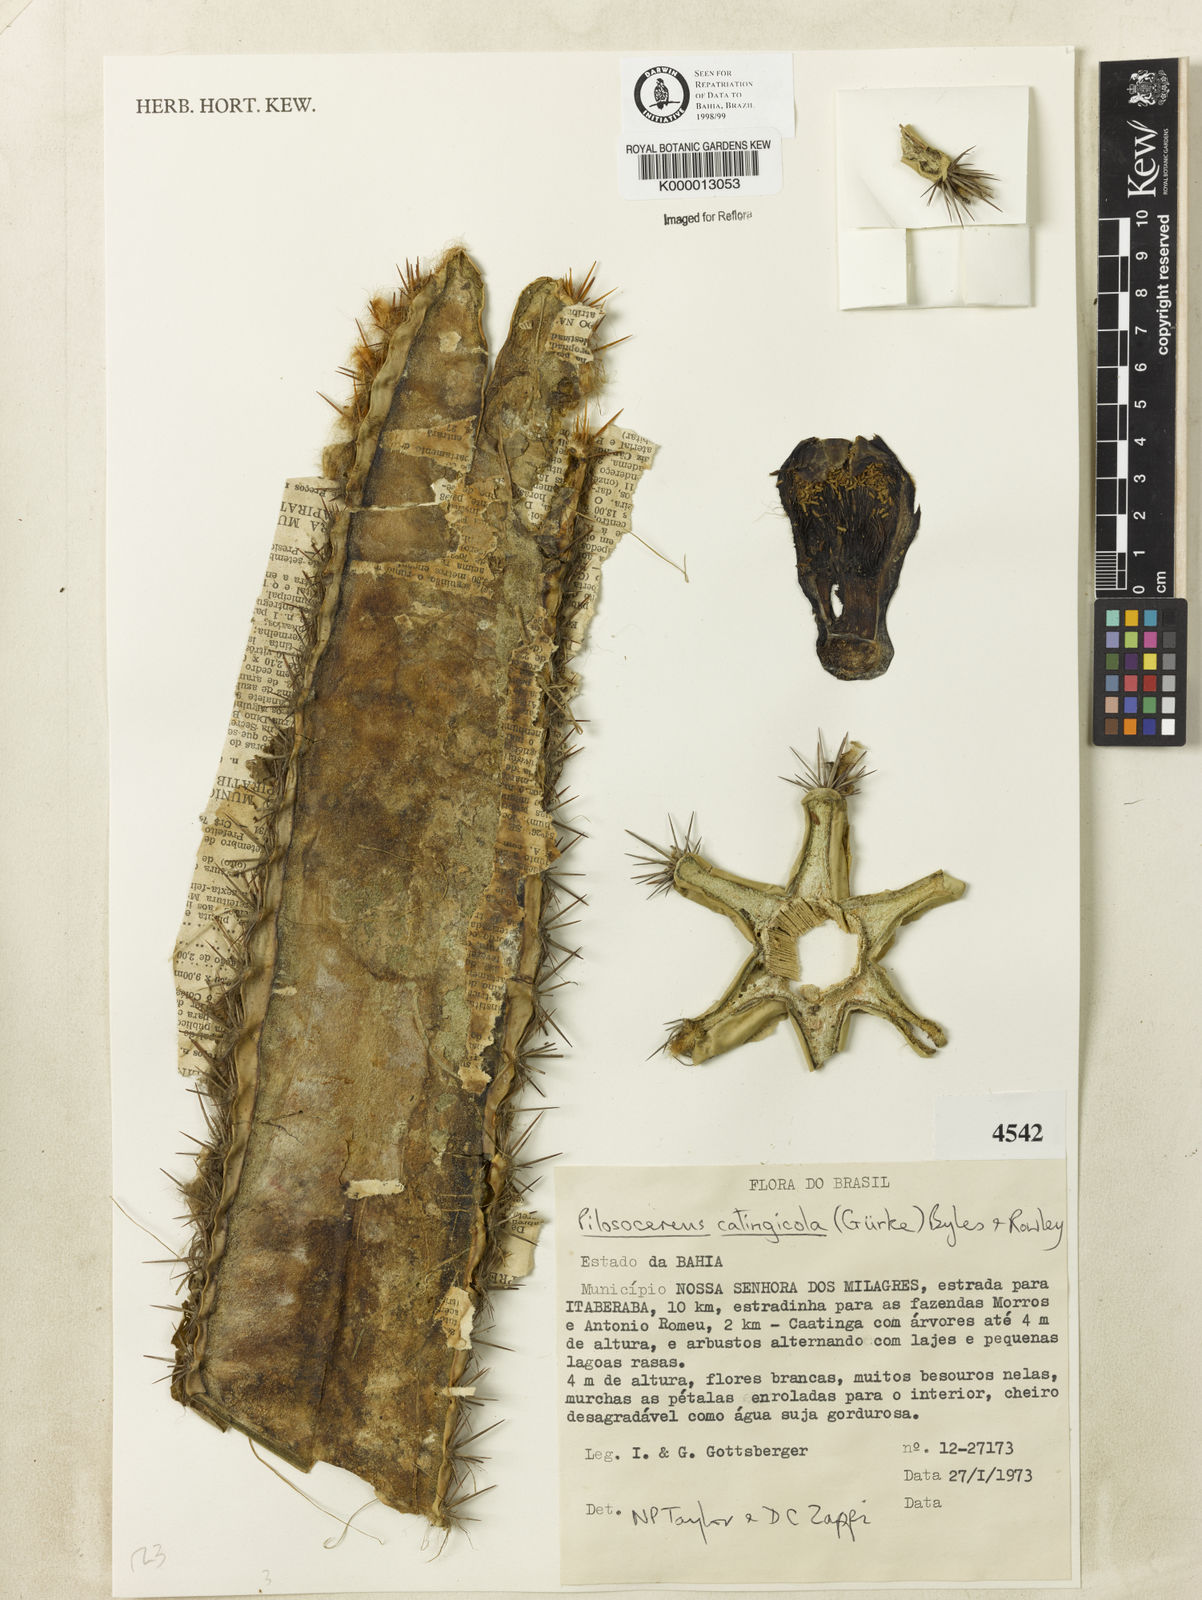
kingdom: Plantae
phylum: Tracheophyta
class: Magnoliopsida
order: Caryophyllales
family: Cactaceae
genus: Pilosocereus
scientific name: Pilosocereus catingicola
